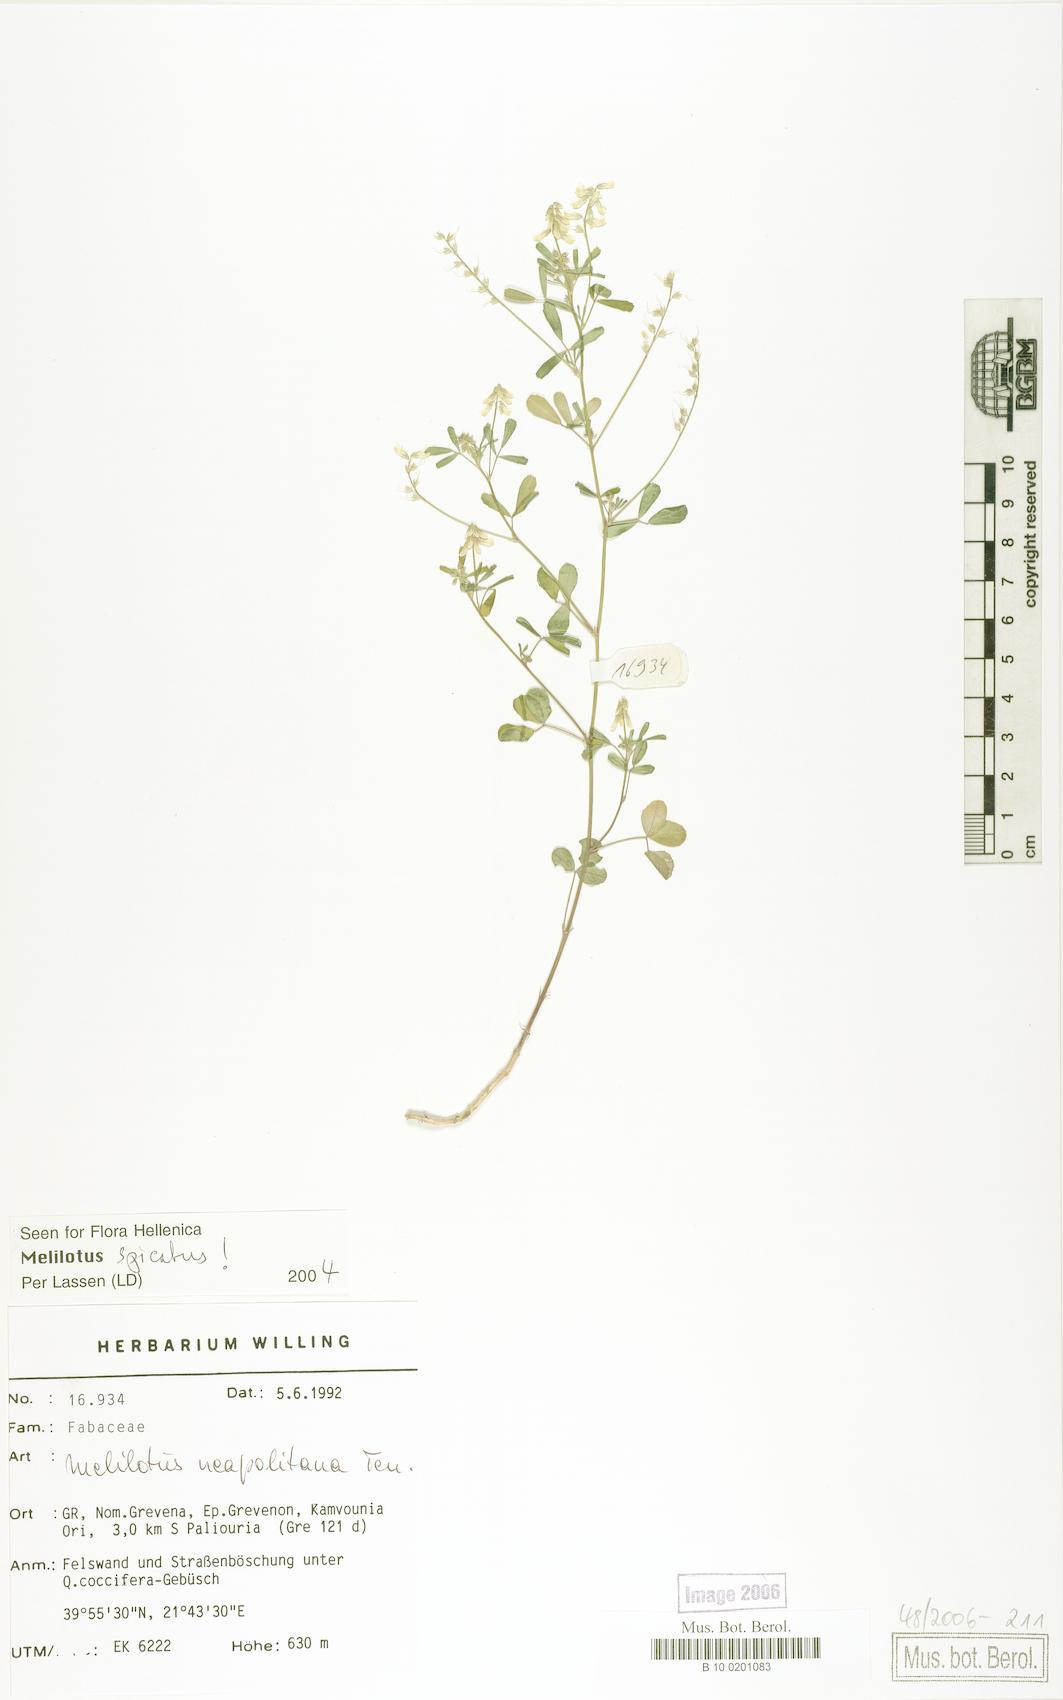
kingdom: Plantae
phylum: Tracheophyta
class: Magnoliopsida
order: Fabales
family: Fabaceae
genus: Melilotus
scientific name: Melilotus neapolitanus
